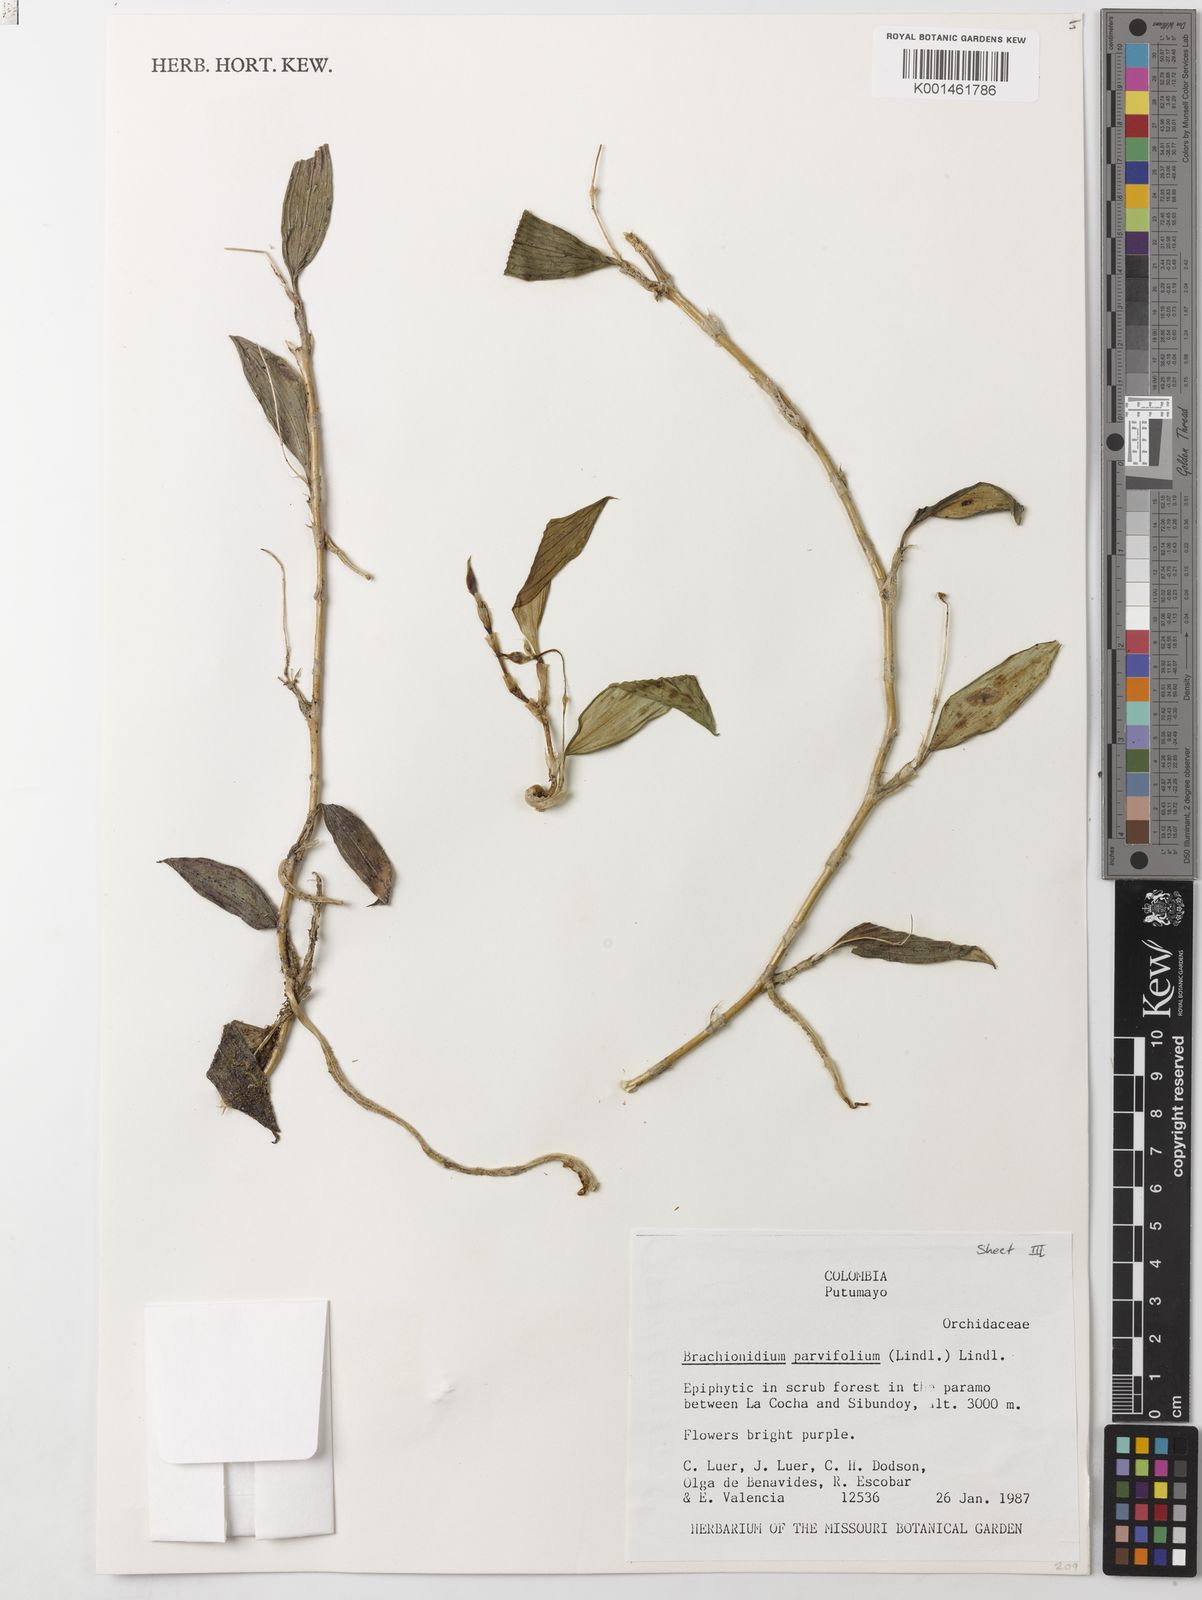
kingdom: Plantae
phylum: Tracheophyta
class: Liliopsida
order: Asparagales
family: Orchidaceae
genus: Brachionidium
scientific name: Brachionidium parvifolium
